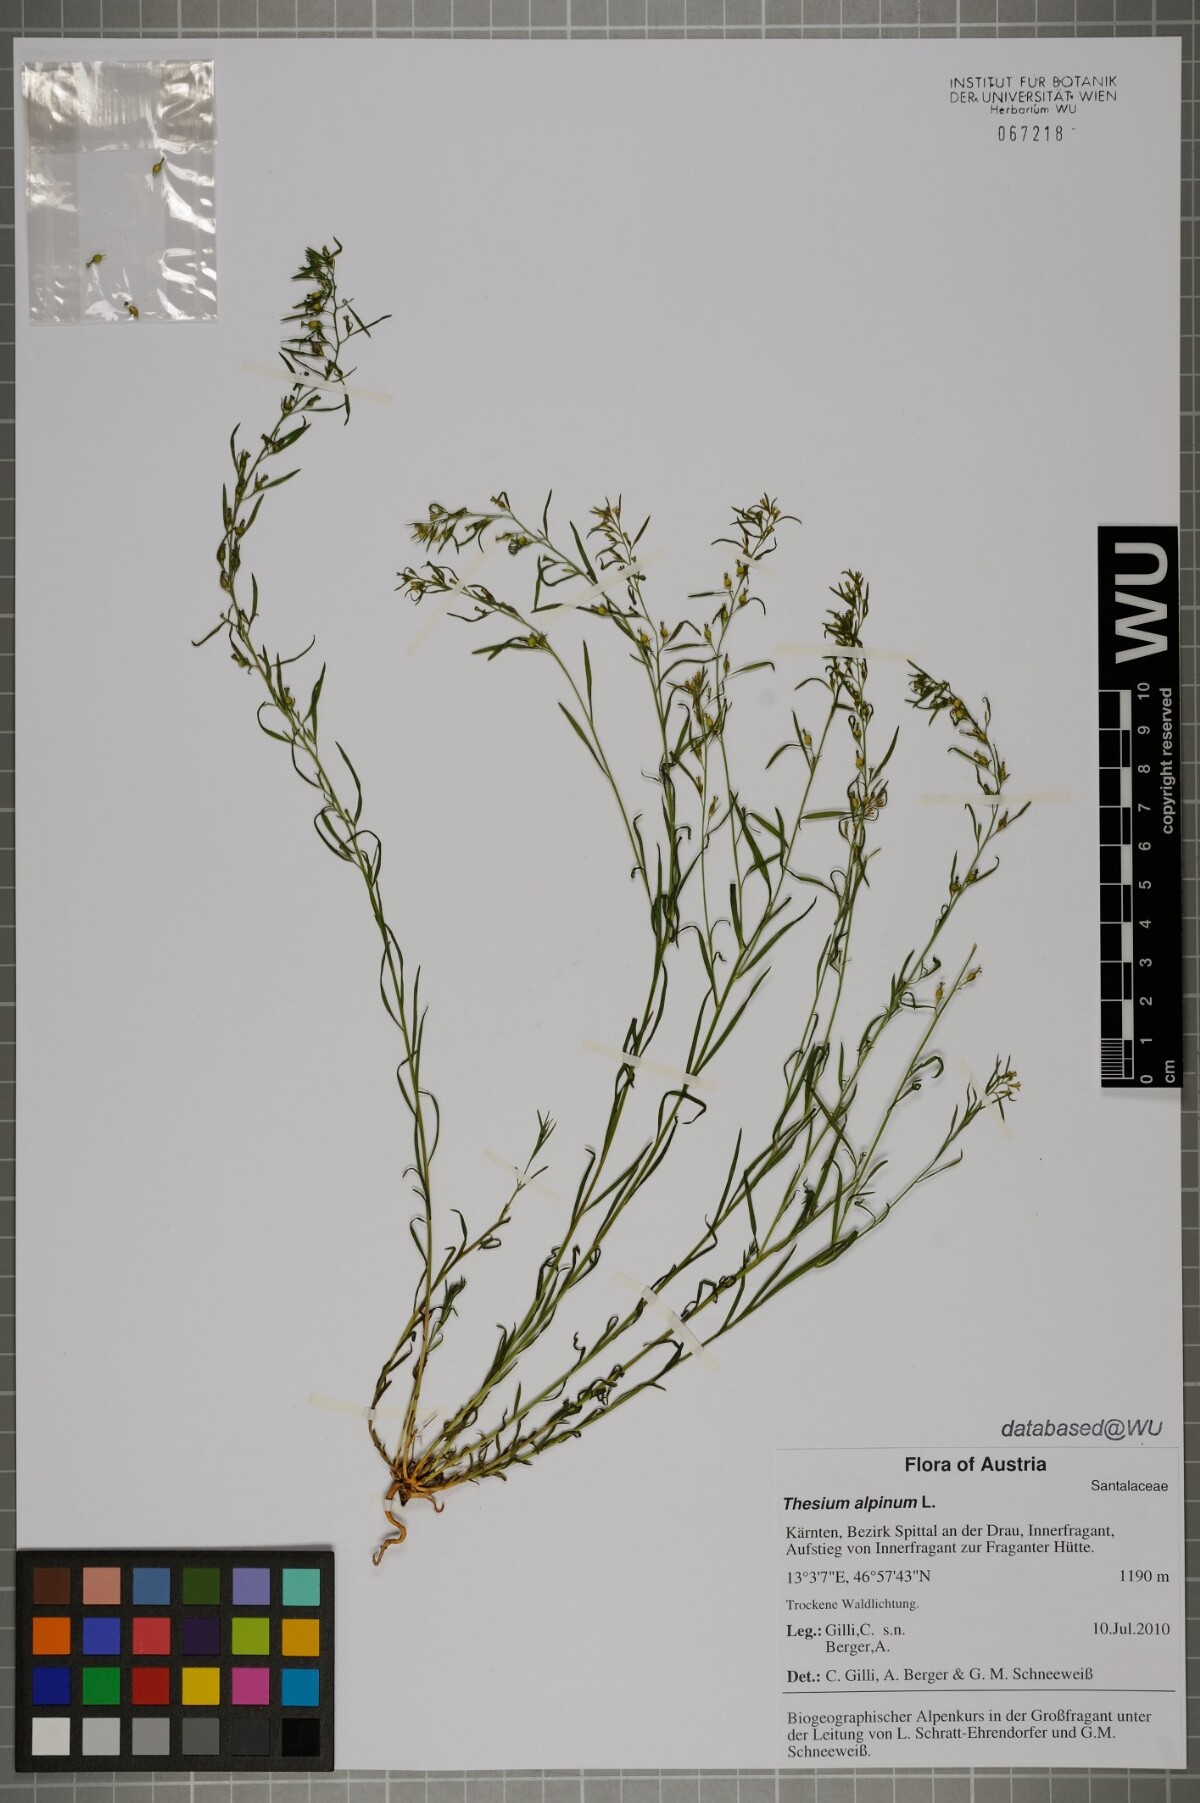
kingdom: Plantae
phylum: Tracheophyta
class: Magnoliopsida
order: Santalales
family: Thesiaceae
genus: Thesium
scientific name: Thesium alpinum
